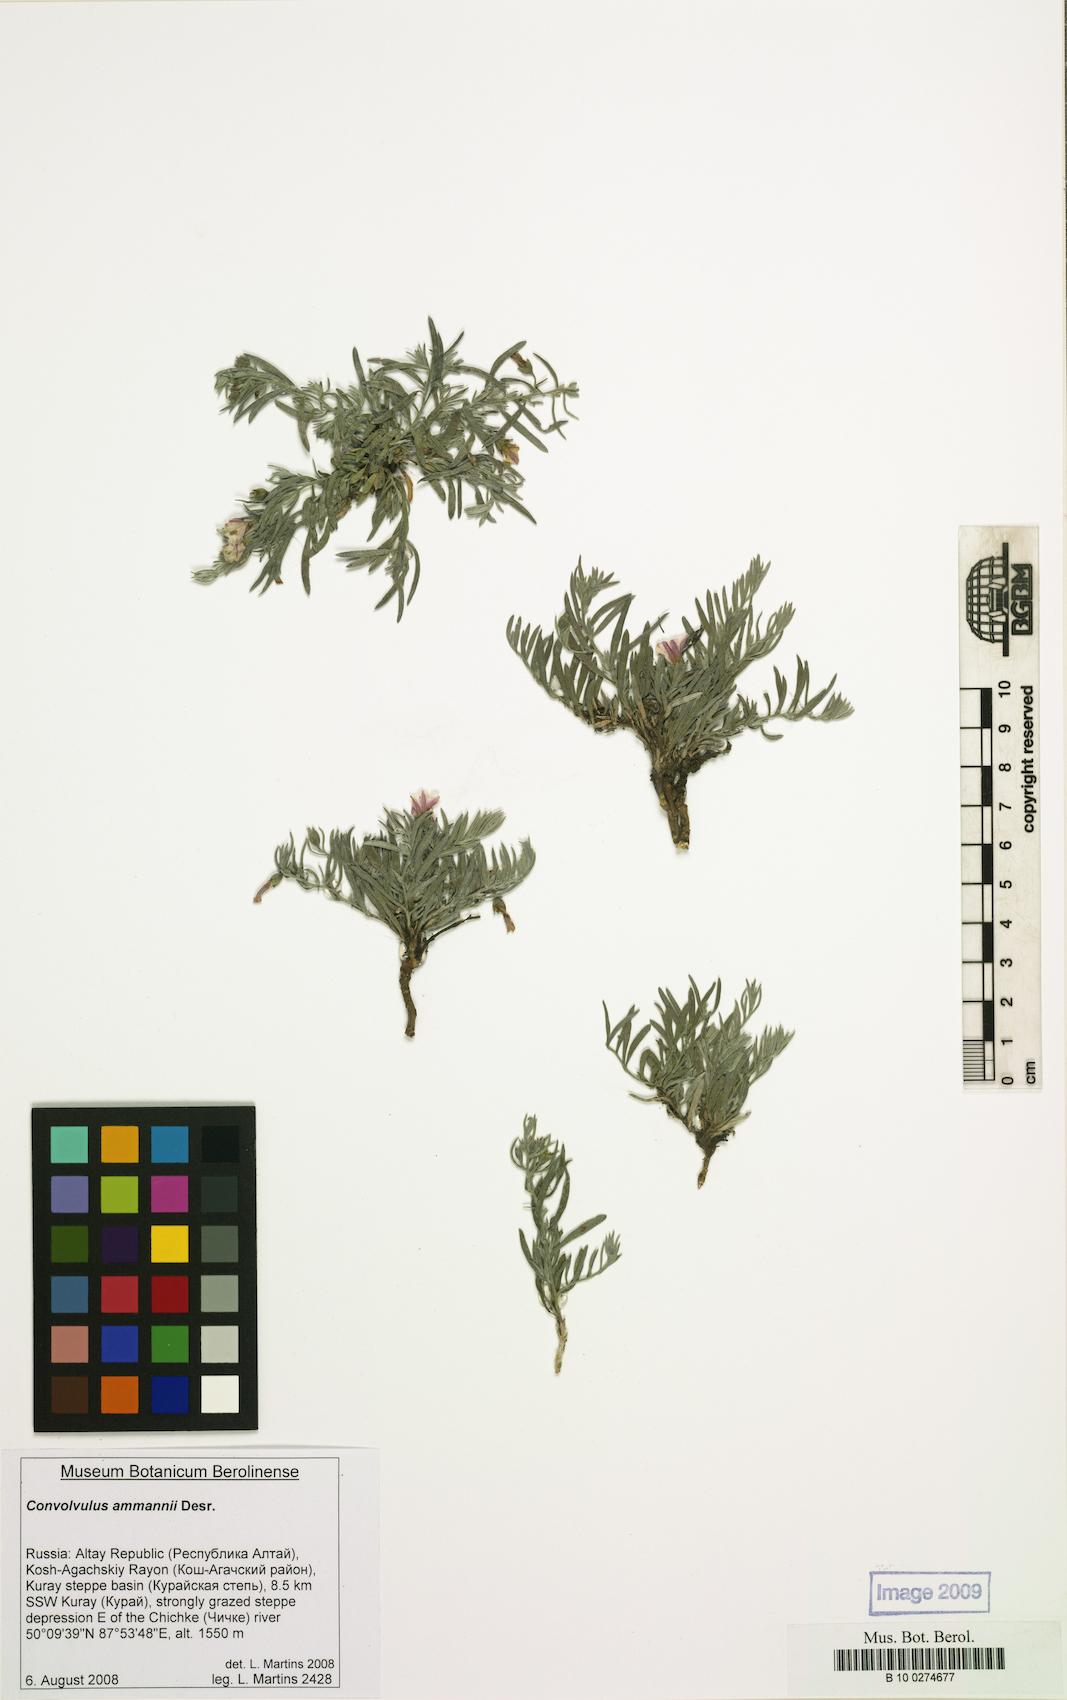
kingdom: Plantae
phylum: Tracheophyta
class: Magnoliopsida
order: Solanales
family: Convolvulaceae
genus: Convolvulus
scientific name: Convolvulus ammannii
